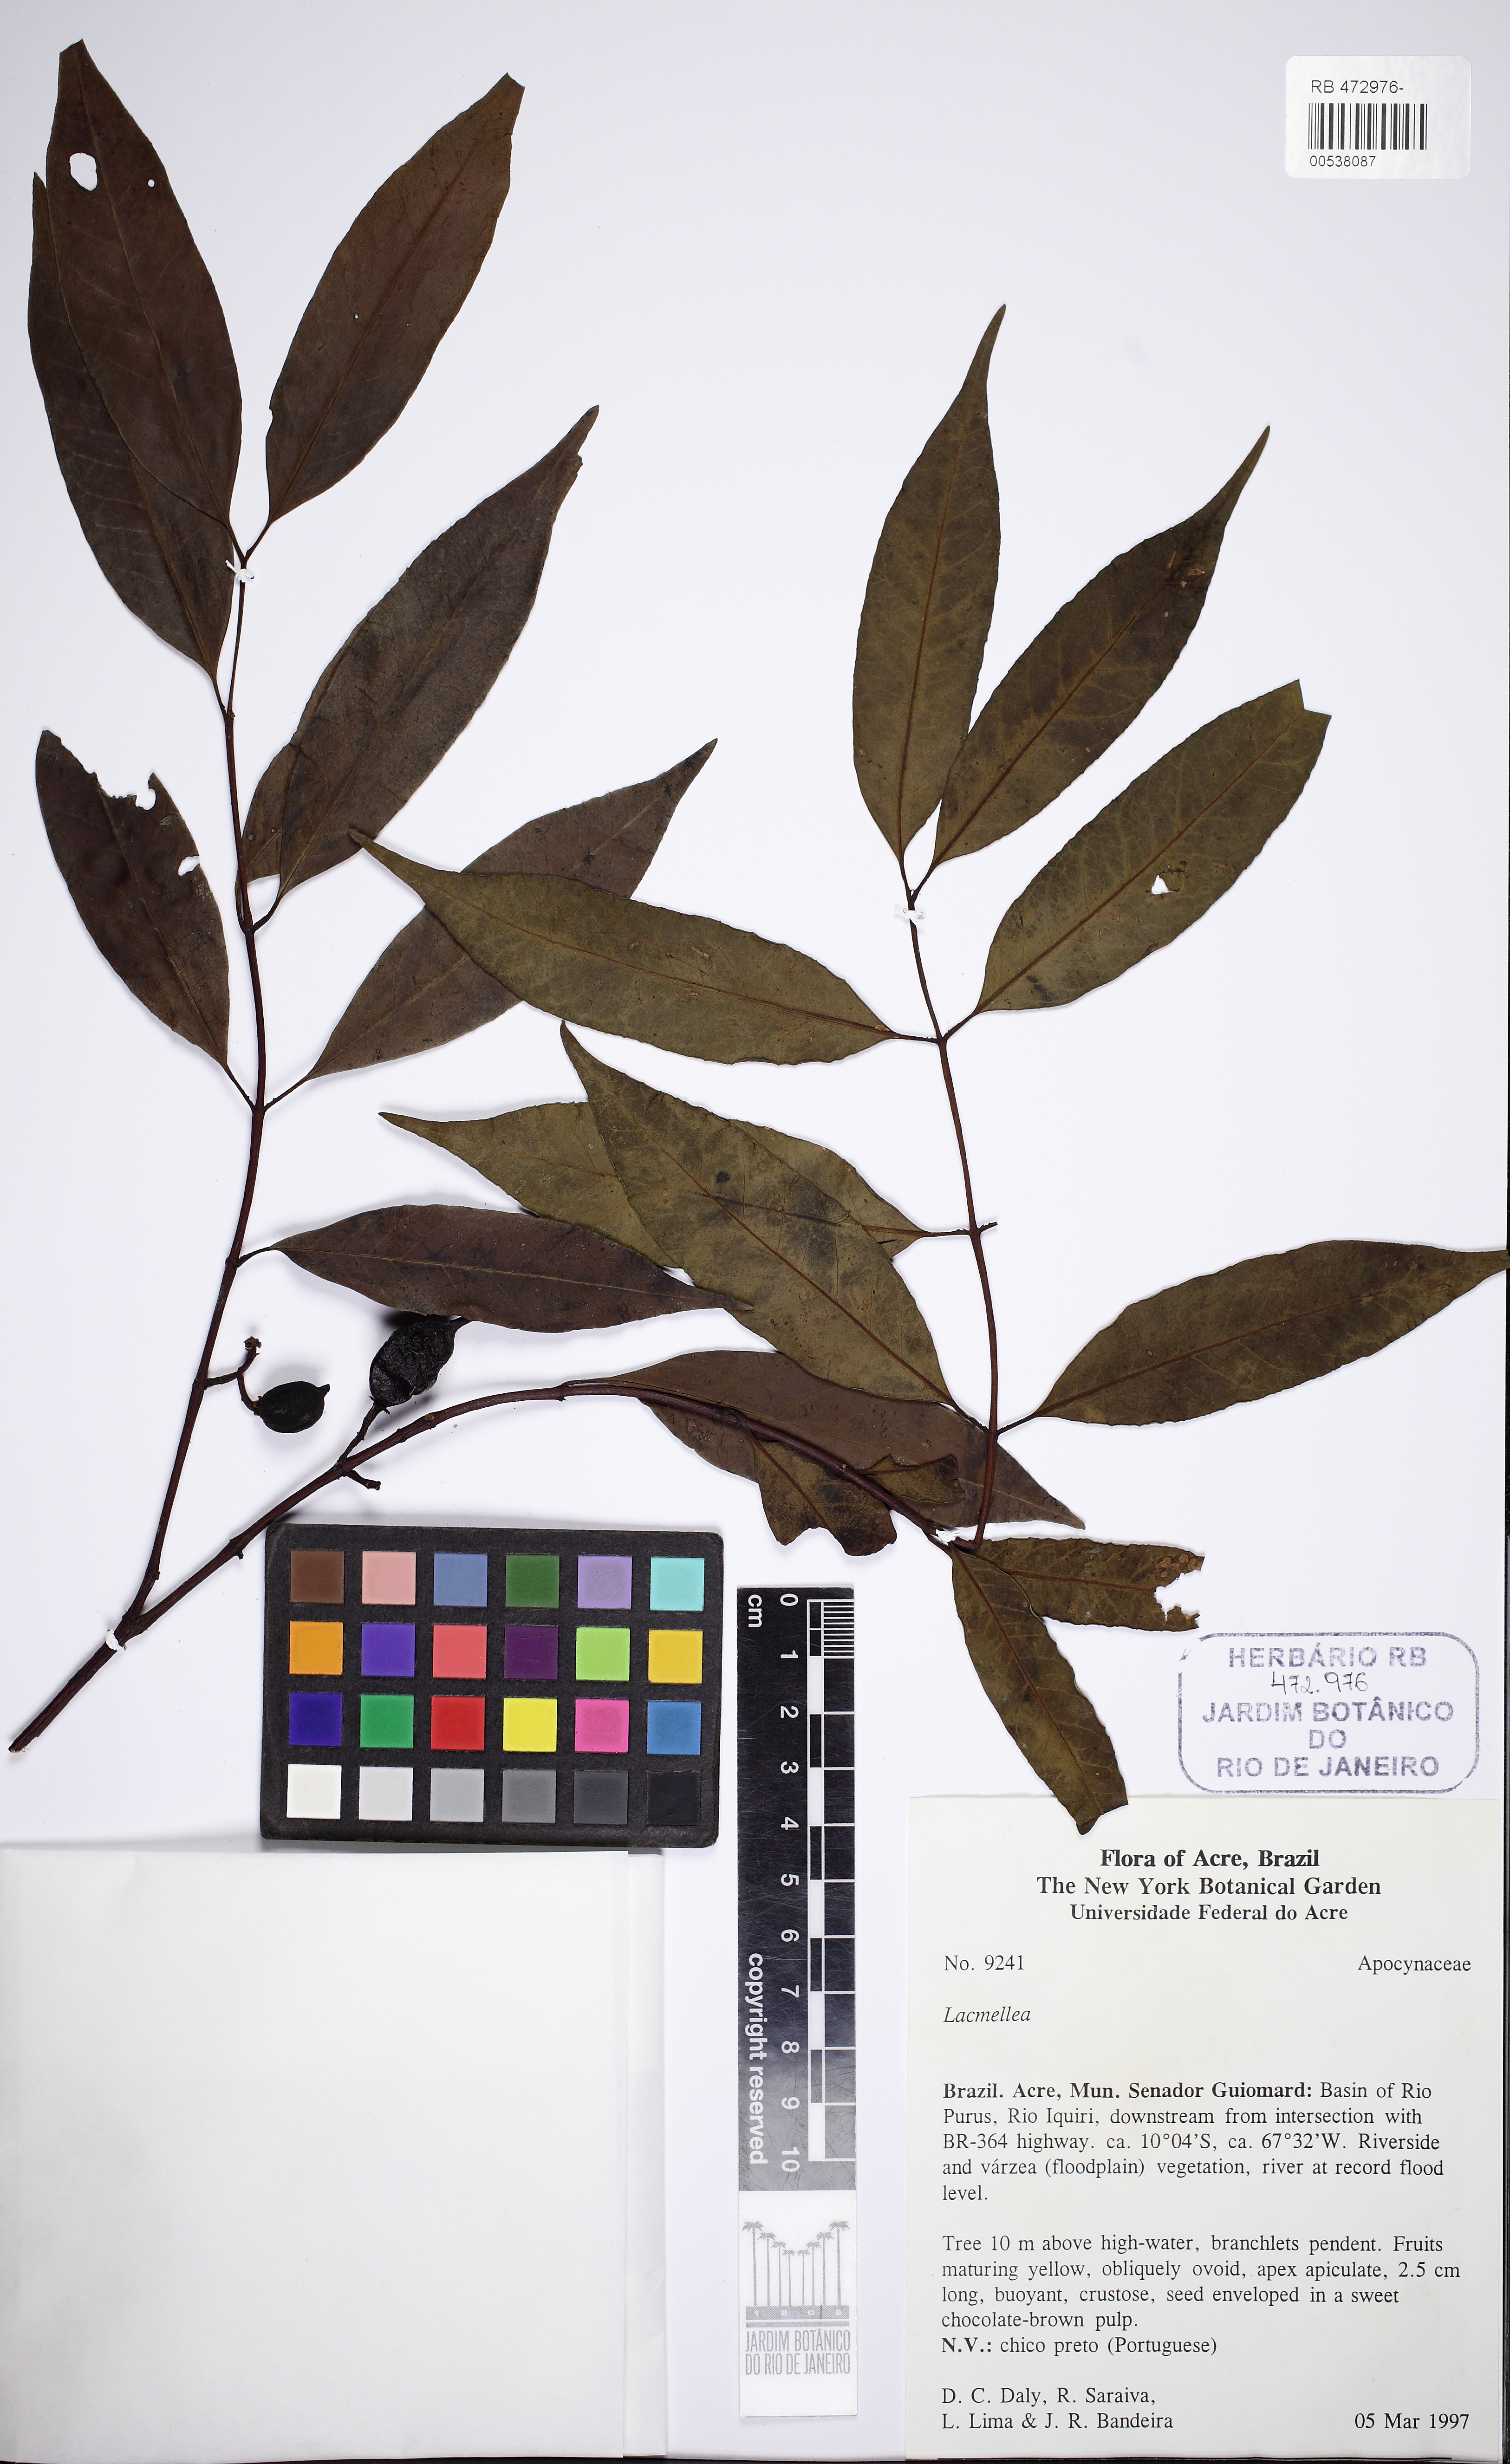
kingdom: Plantae
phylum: Tracheophyta
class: Magnoliopsida
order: Gentianales
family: Apocynaceae
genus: Lacmellea
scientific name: Lacmellea
